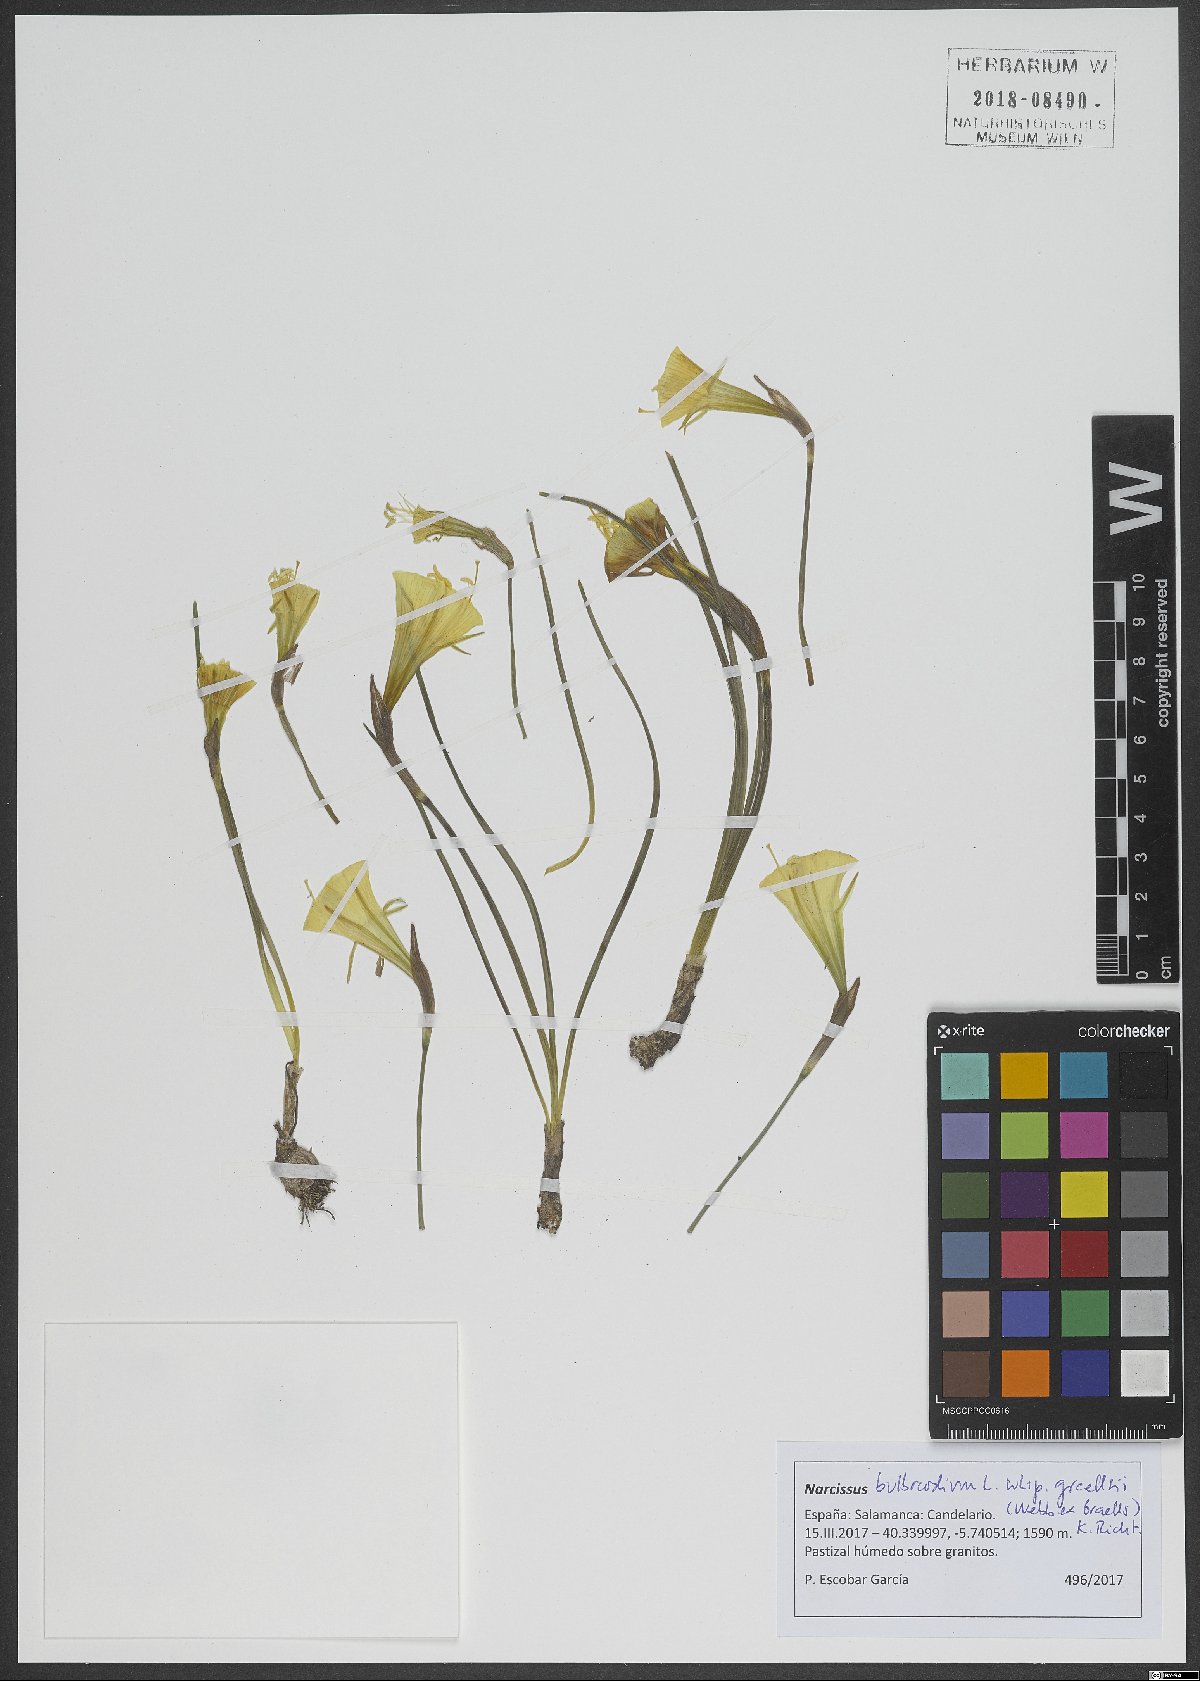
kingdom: Plantae
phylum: Tracheophyta
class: Liliopsida
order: Asparagales
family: Amaryllidaceae
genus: Narcissus
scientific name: Narcissus bulbocodium
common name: Hoop-petticoat daffodil
